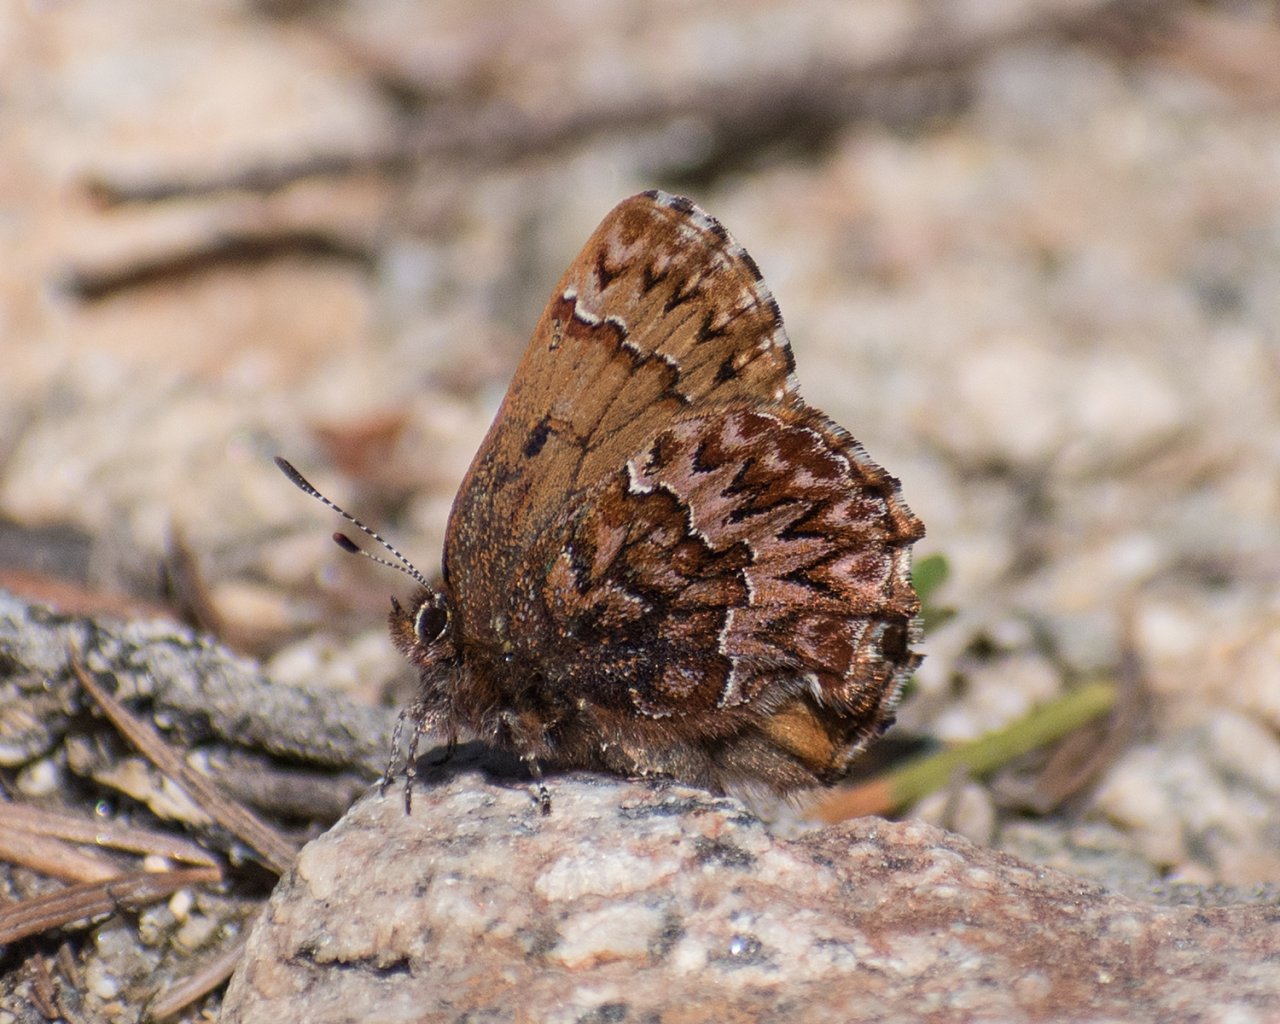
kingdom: Animalia
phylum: Arthropoda
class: Insecta
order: Lepidoptera
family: Lycaenidae
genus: Incisalia
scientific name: Incisalia eryphon
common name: Western Pine Elfin
